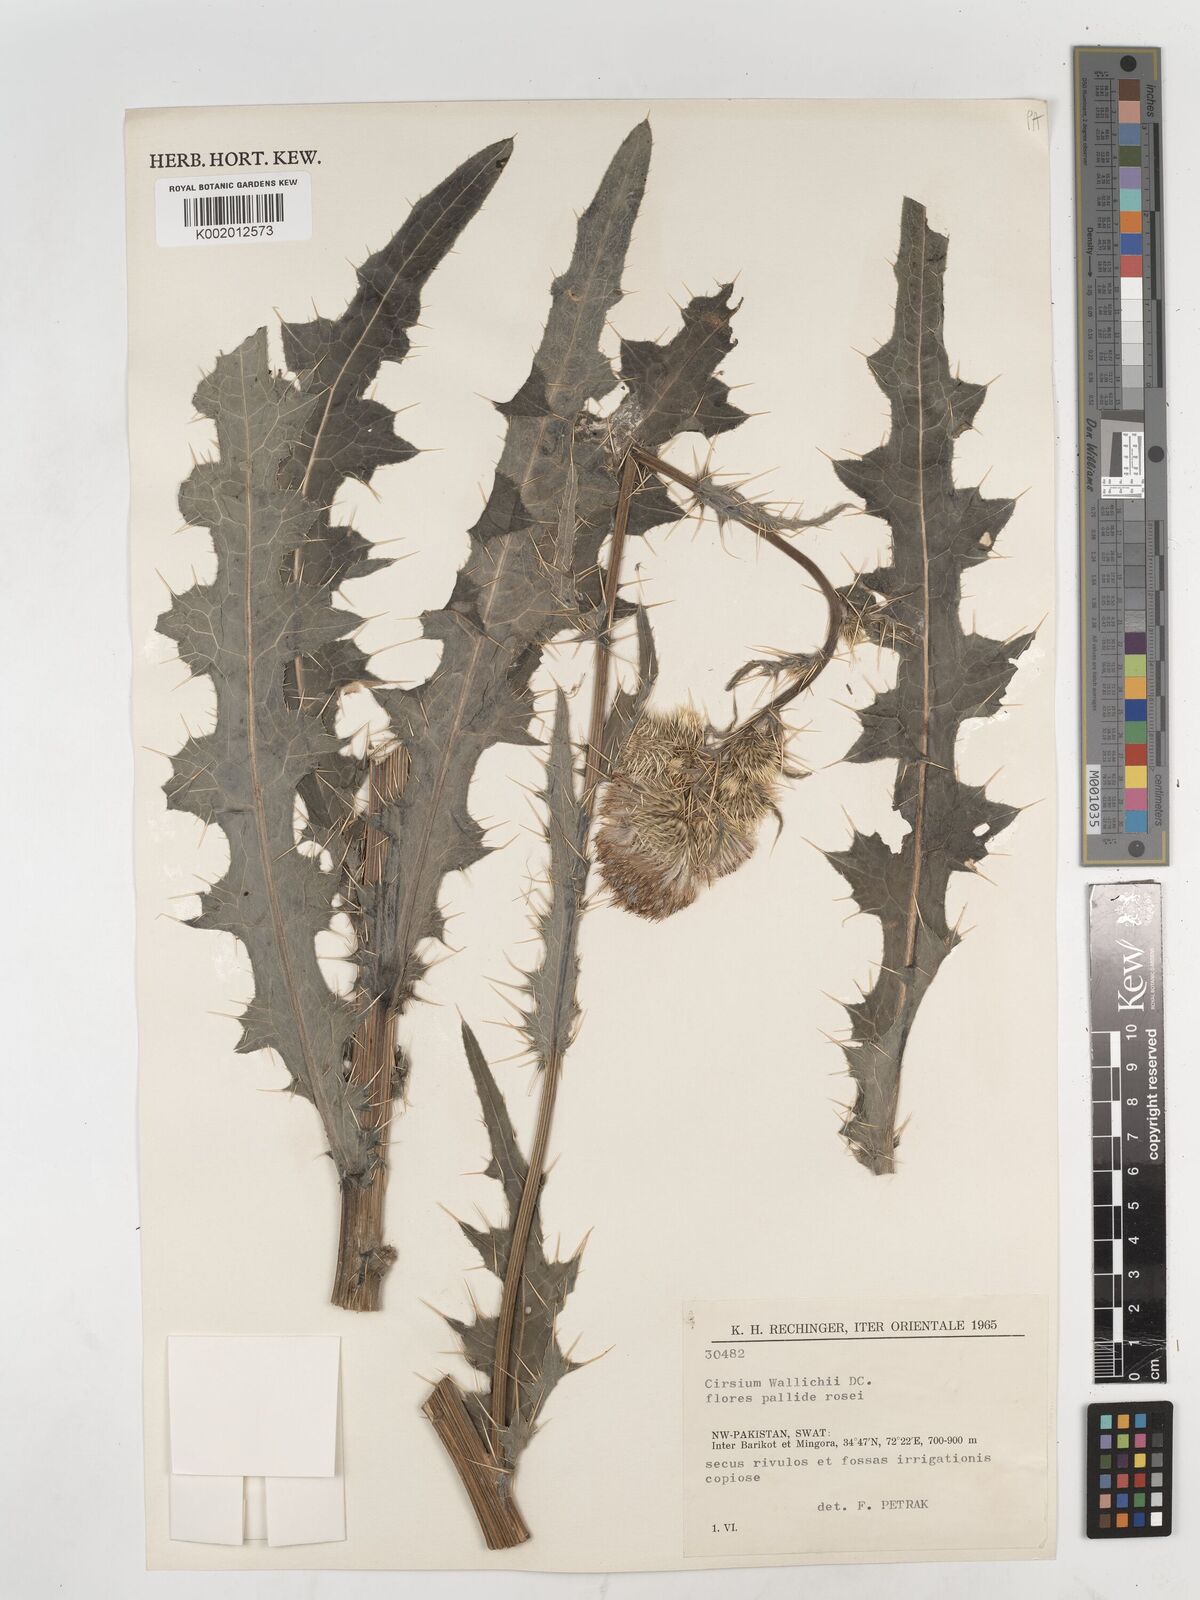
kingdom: Plantae
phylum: Tracheophyta
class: Magnoliopsida
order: Asterales
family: Asteraceae
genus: Cirsium
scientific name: Cirsium wallichii
